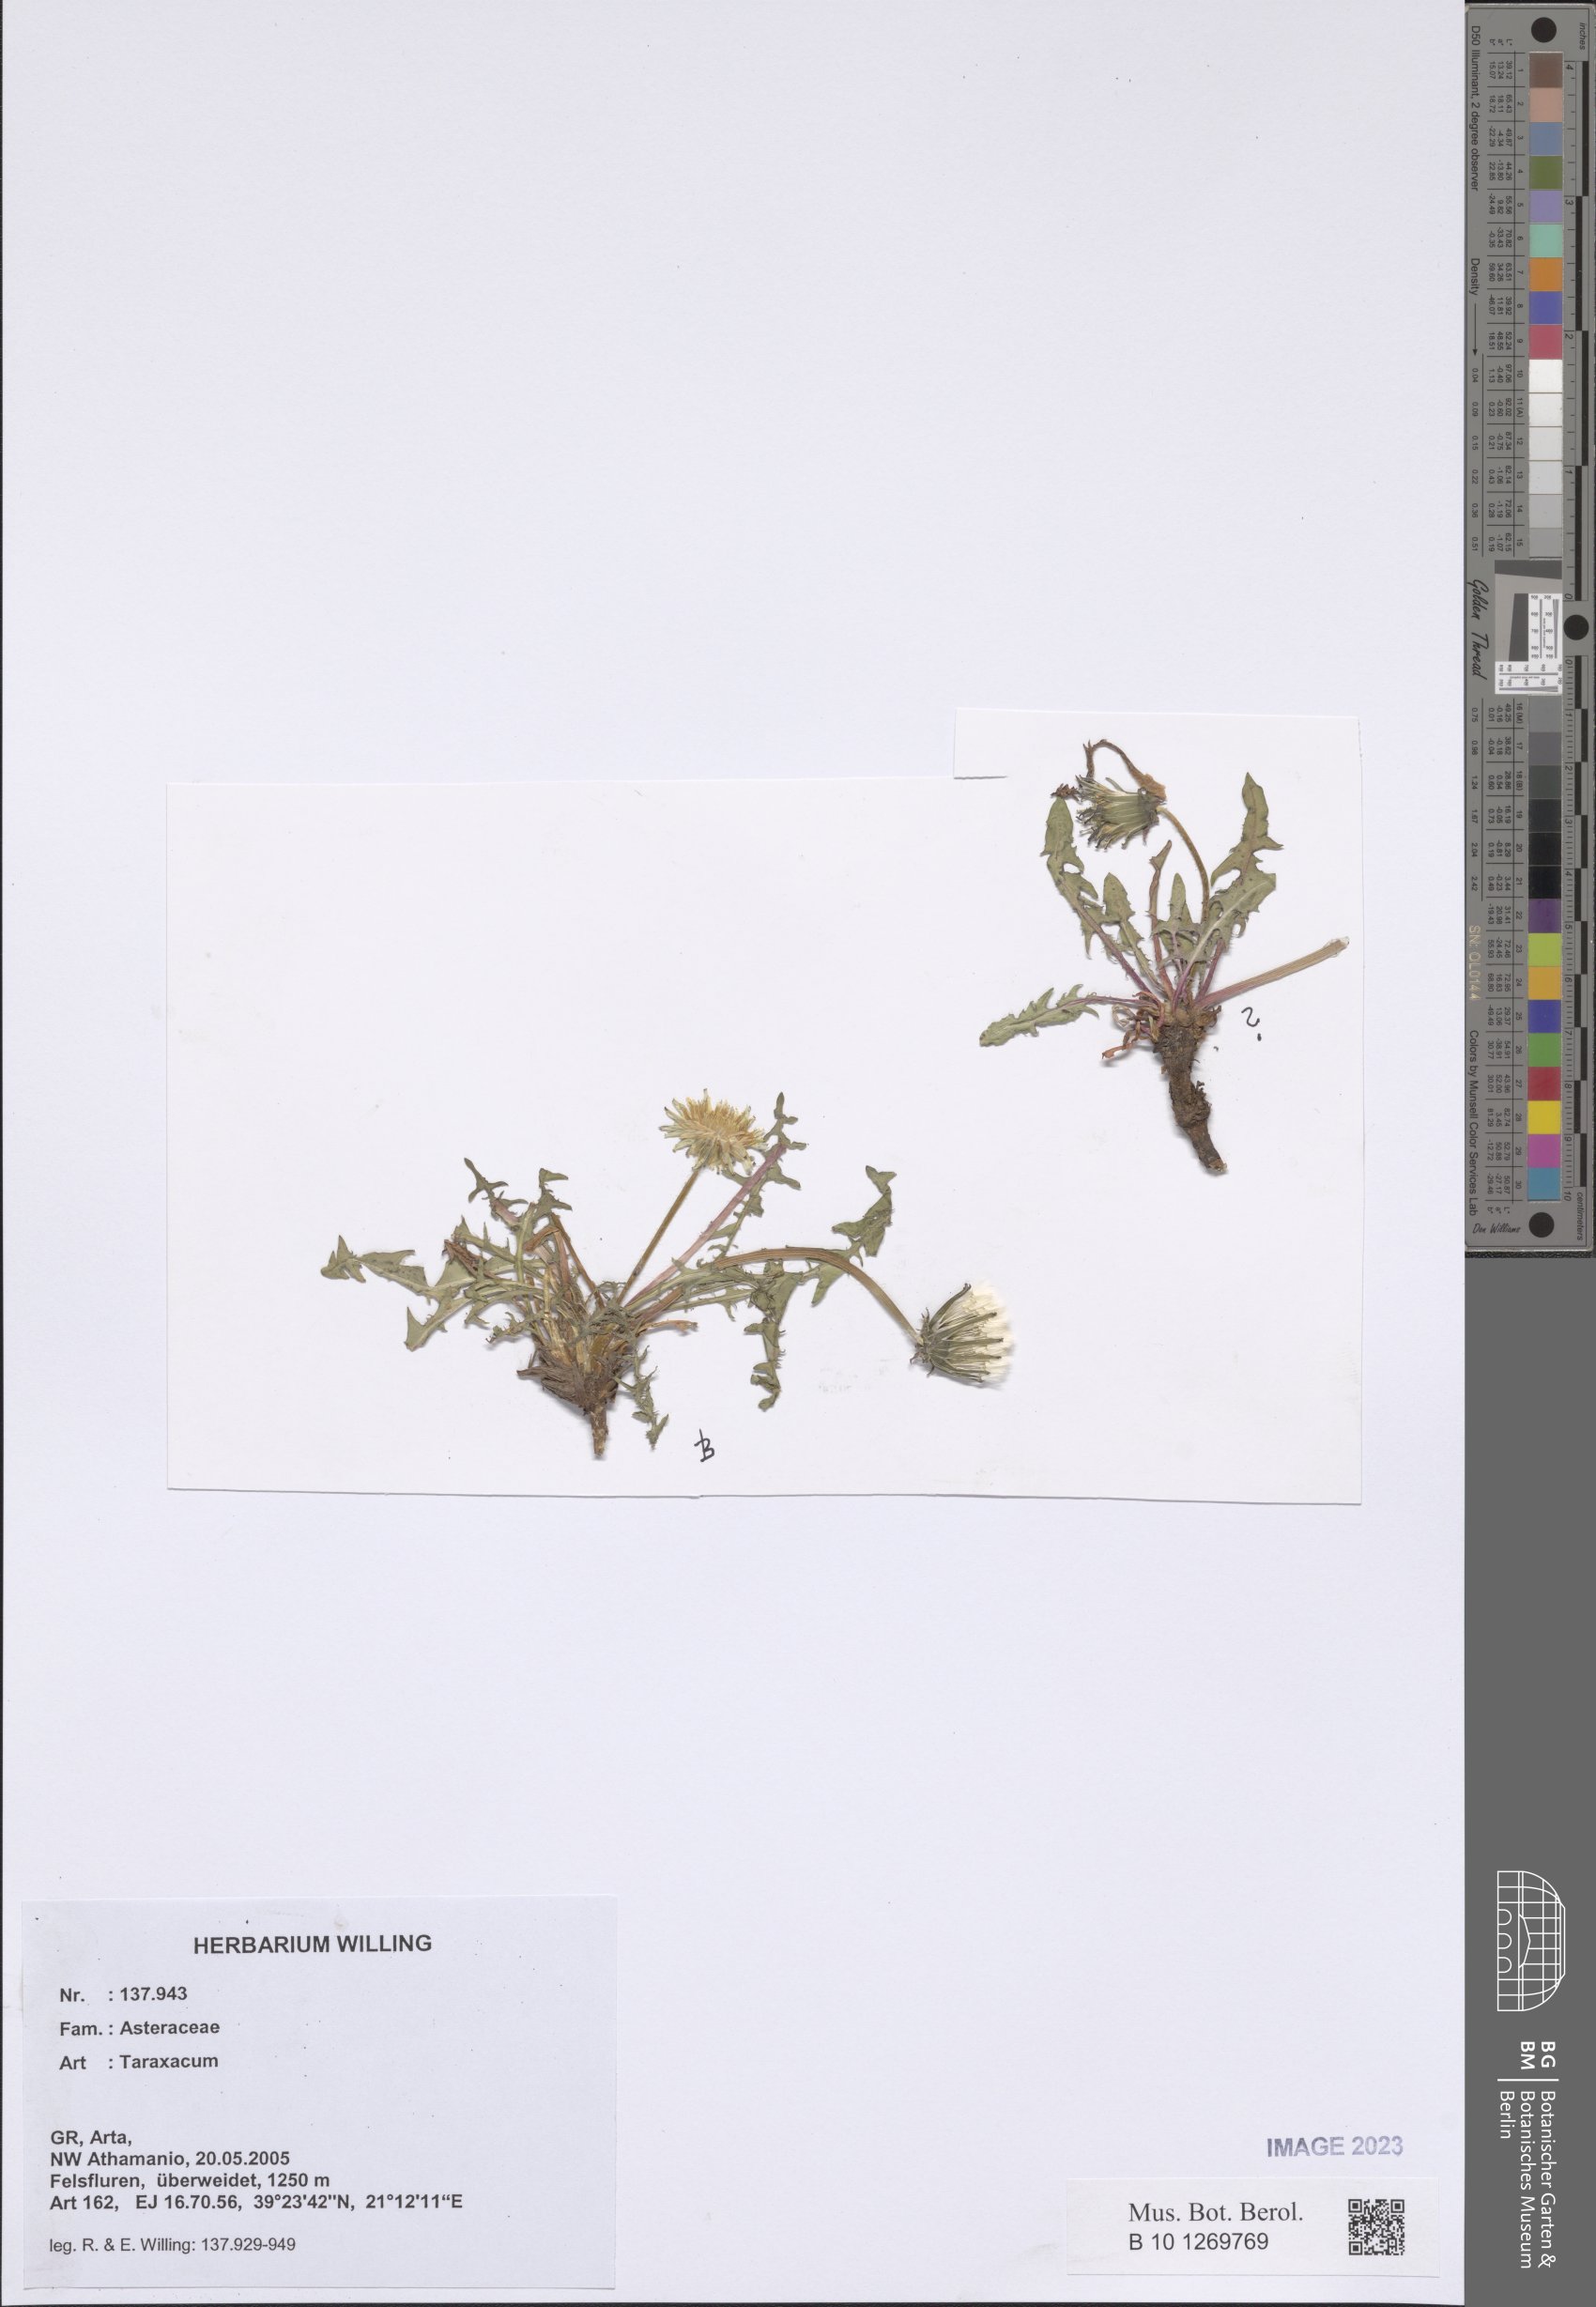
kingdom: Plantae
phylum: Tracheophyta
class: Magnoliopsida
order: Asterales
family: Asteraceae
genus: Taraxacum
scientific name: Taraxacum
